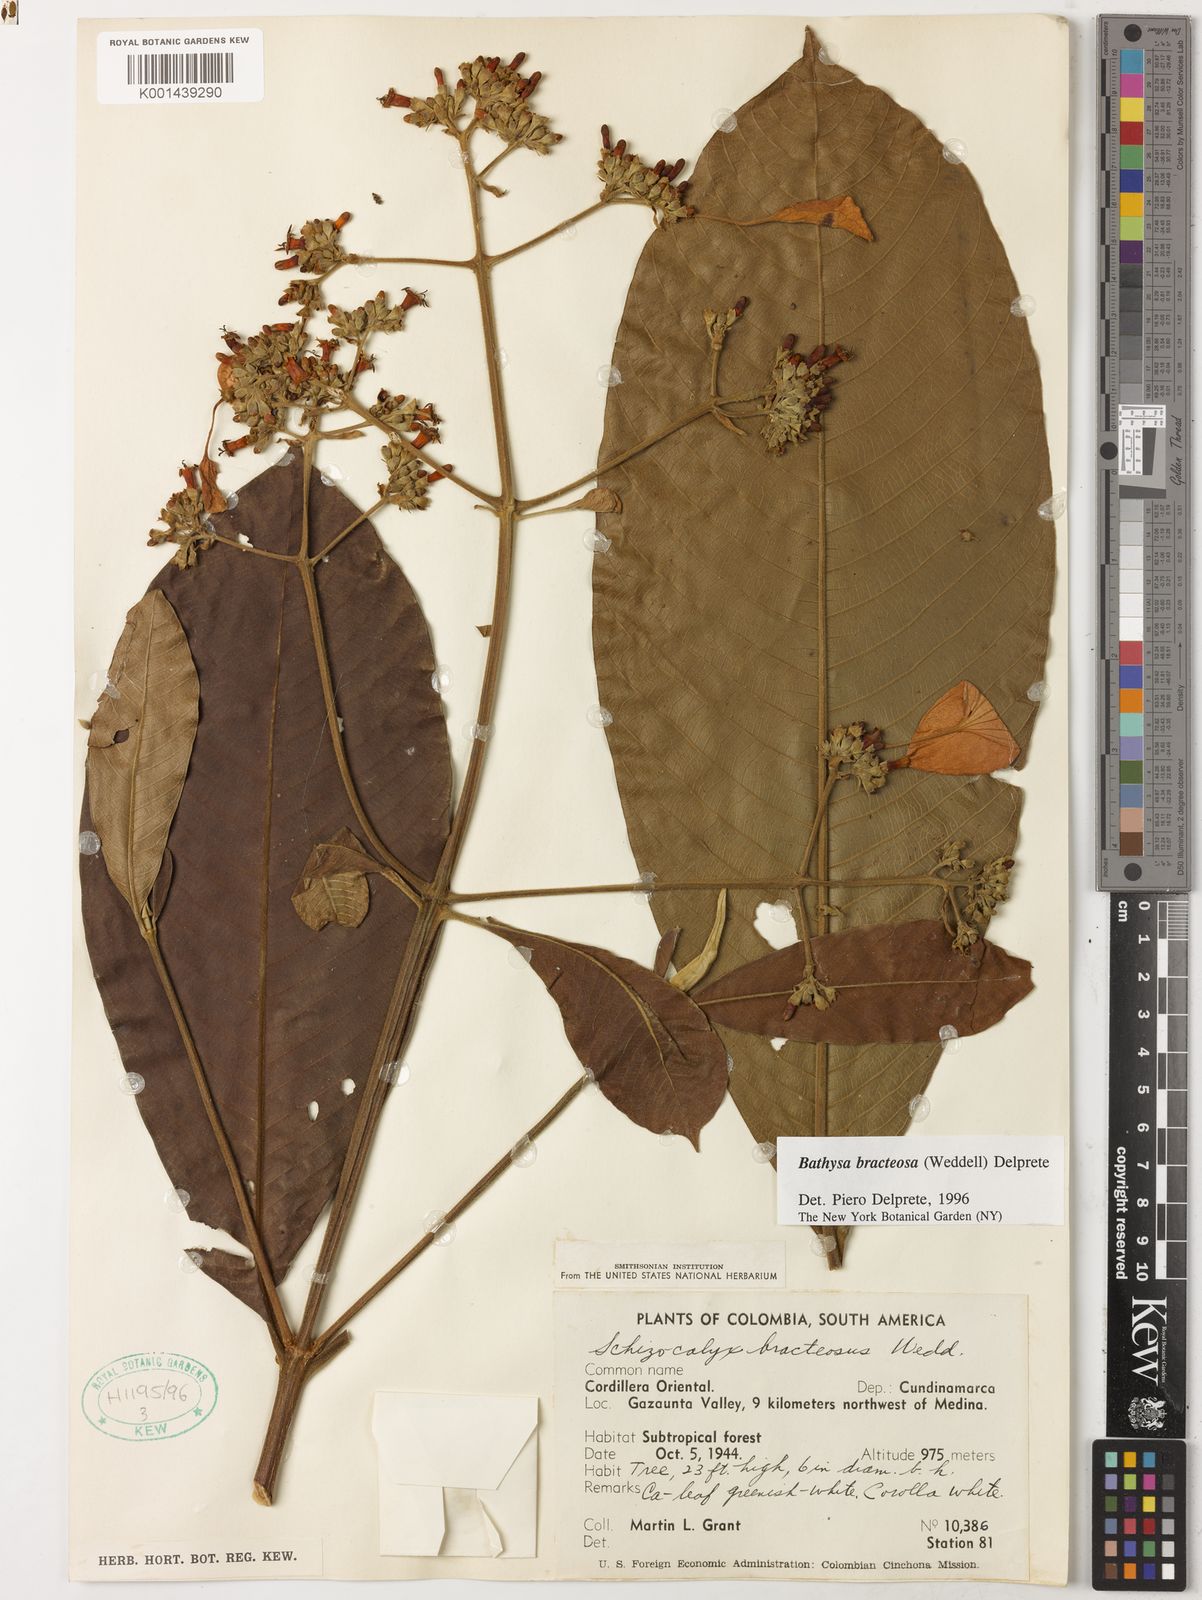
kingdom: Plantae
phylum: Tracheophyta
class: Magnoliopsida
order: Gentianales
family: Rubiaceae
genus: Schizocalyx
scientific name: Schizocalyx bracteosa
